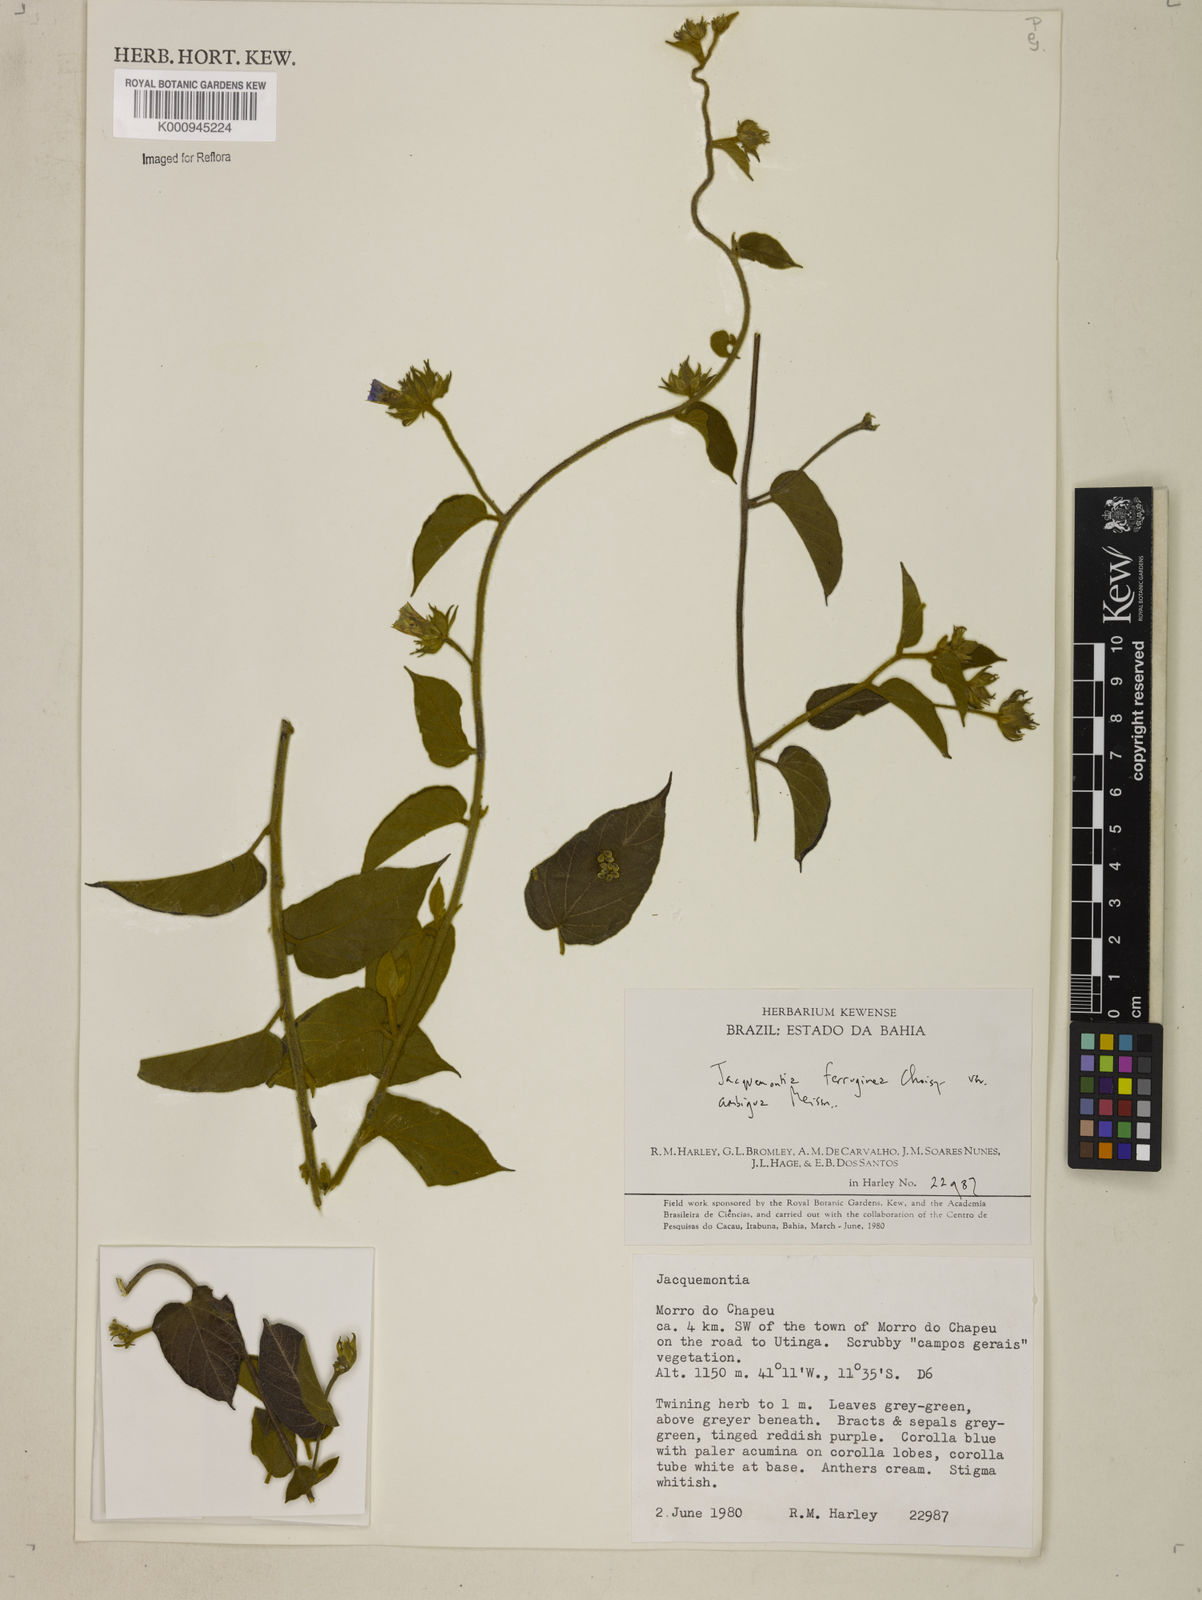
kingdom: Plantae
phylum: Tracheophyta
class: Magnoliopsida
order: Solanales
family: Convolvulaceae
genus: Jacquemontia
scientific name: Jacquemontia cumanensis
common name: Thicket clustervine
